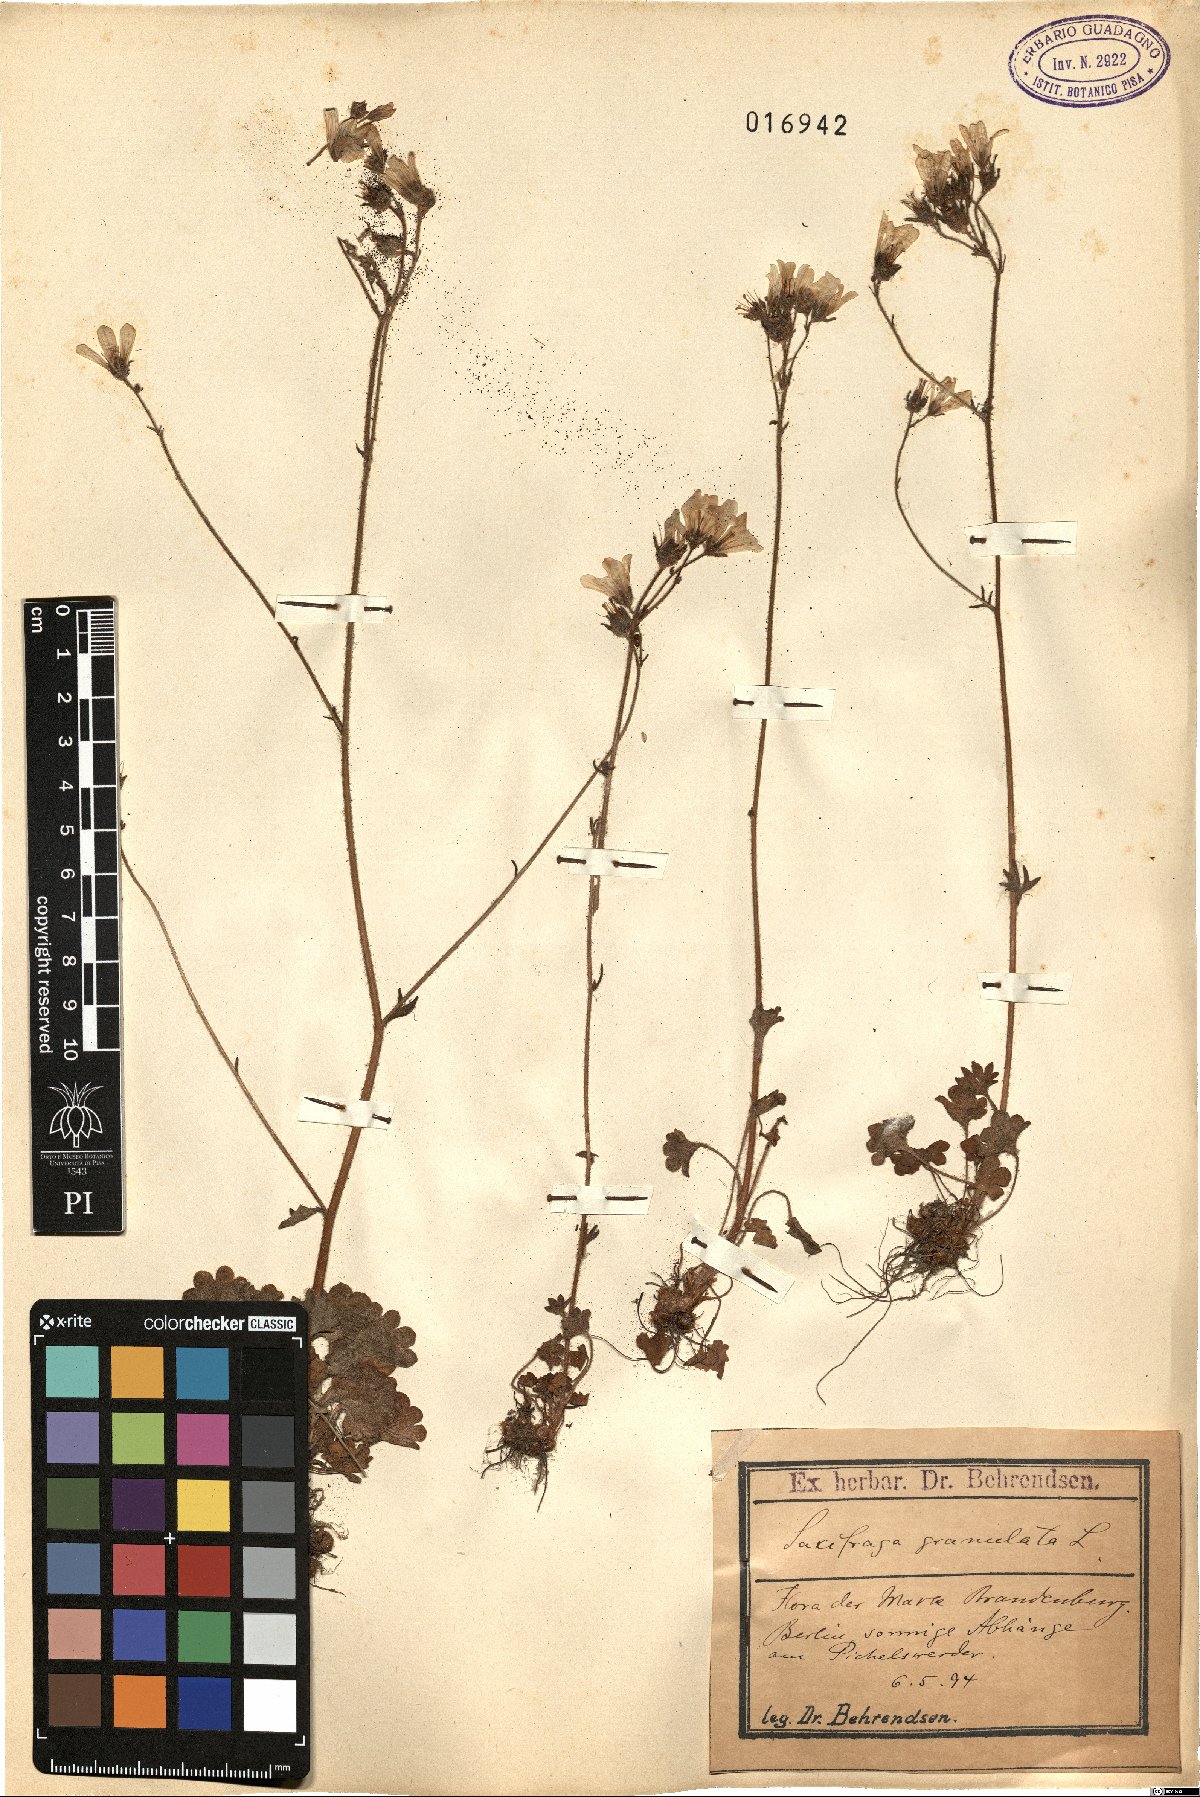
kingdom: Plantae
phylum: Tracheophyta
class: Magnoliopsida
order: Saxifragales
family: Saxifragaceae
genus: Saxifraga
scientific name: Saxifraga granulata
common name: Meadow saxifrage
